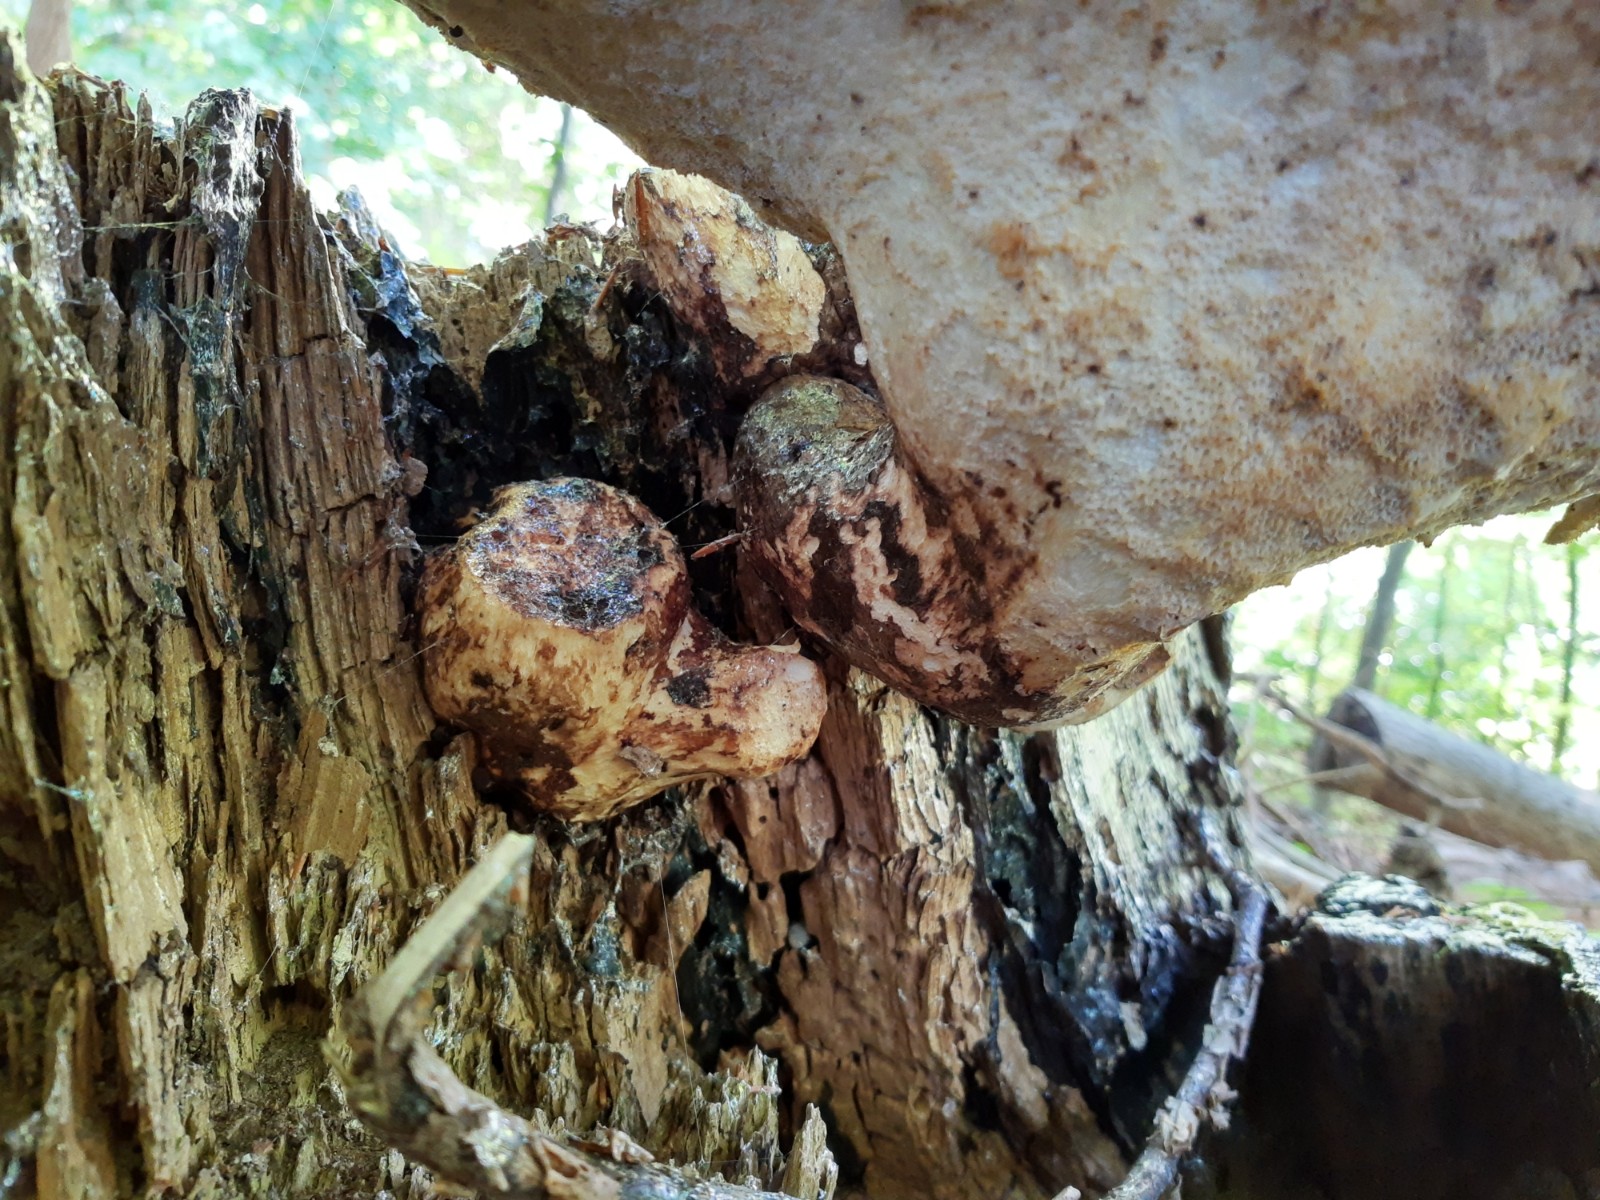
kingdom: Fungi
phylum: Basidiomycota
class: Agaricomycetes
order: Polyporales
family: Polyporaceae
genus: Cerioporus
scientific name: Cerioporus squamosus
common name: skællet stilkporesvamp
